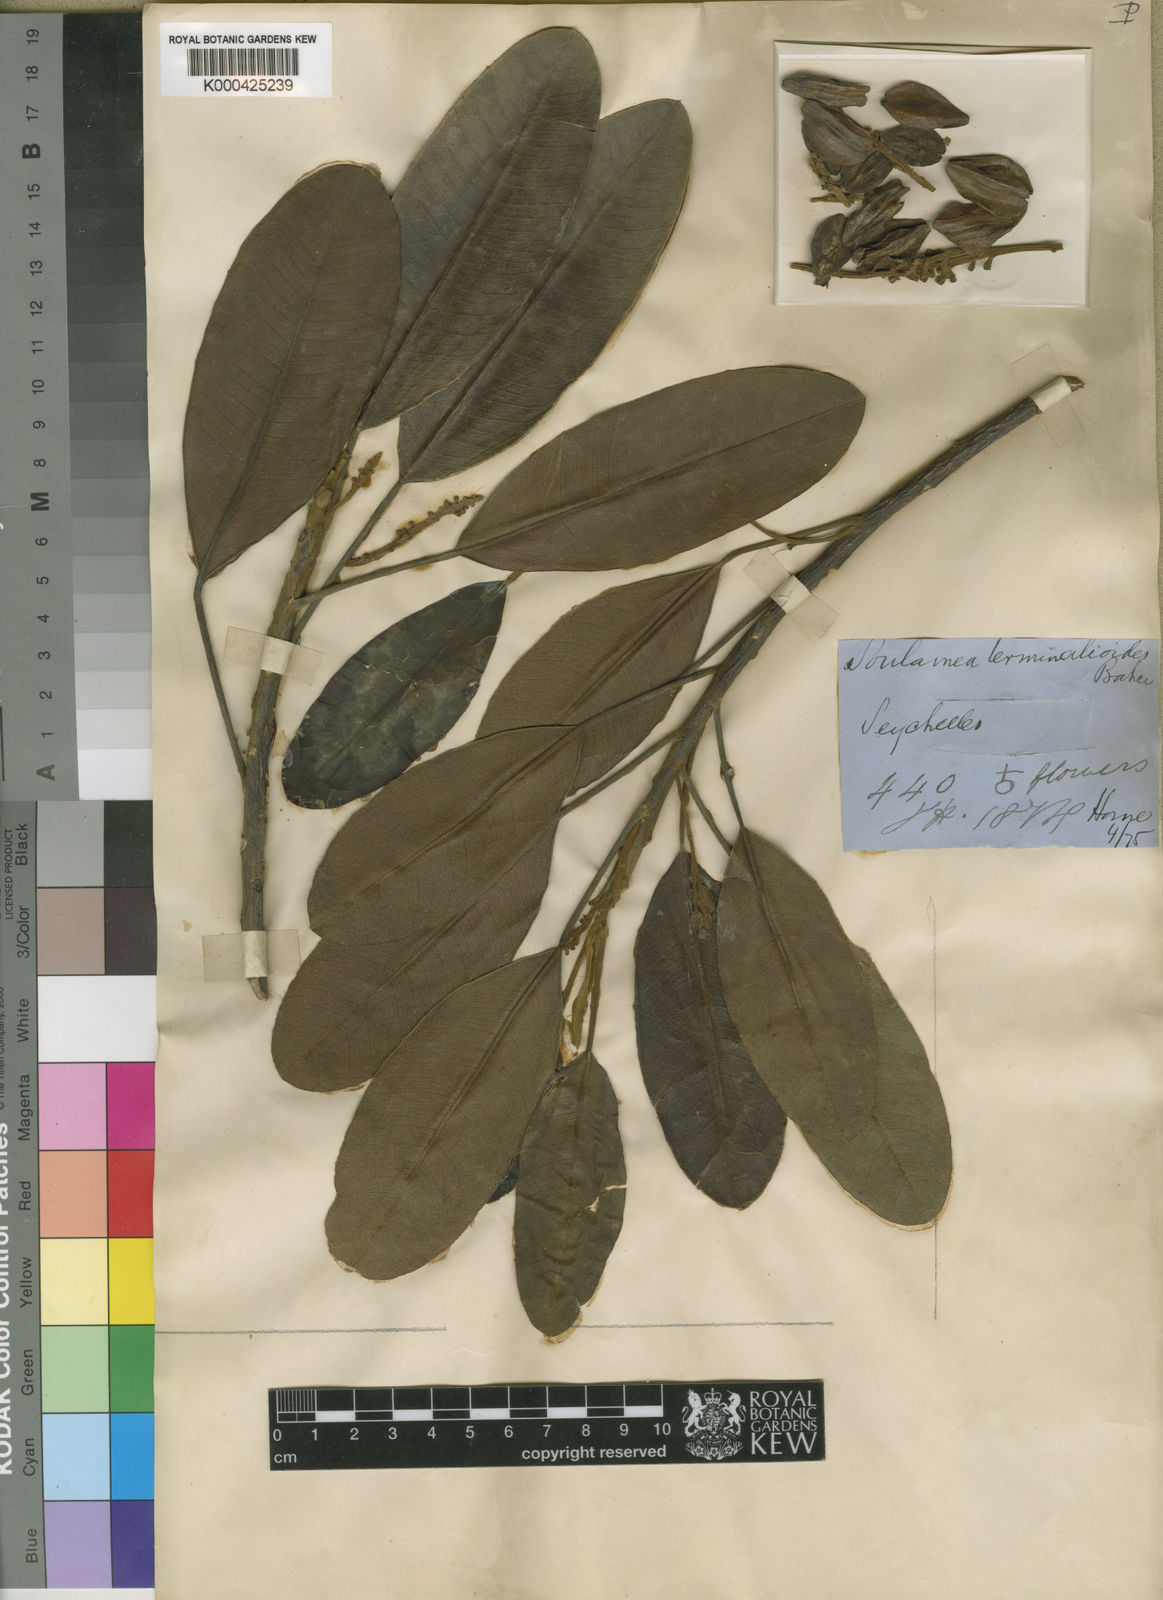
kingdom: Plantae
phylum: Tracheophyta
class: Magnoliopsida
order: Sapindales
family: Simaroubaceae
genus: Soulamea
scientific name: Soulamea
